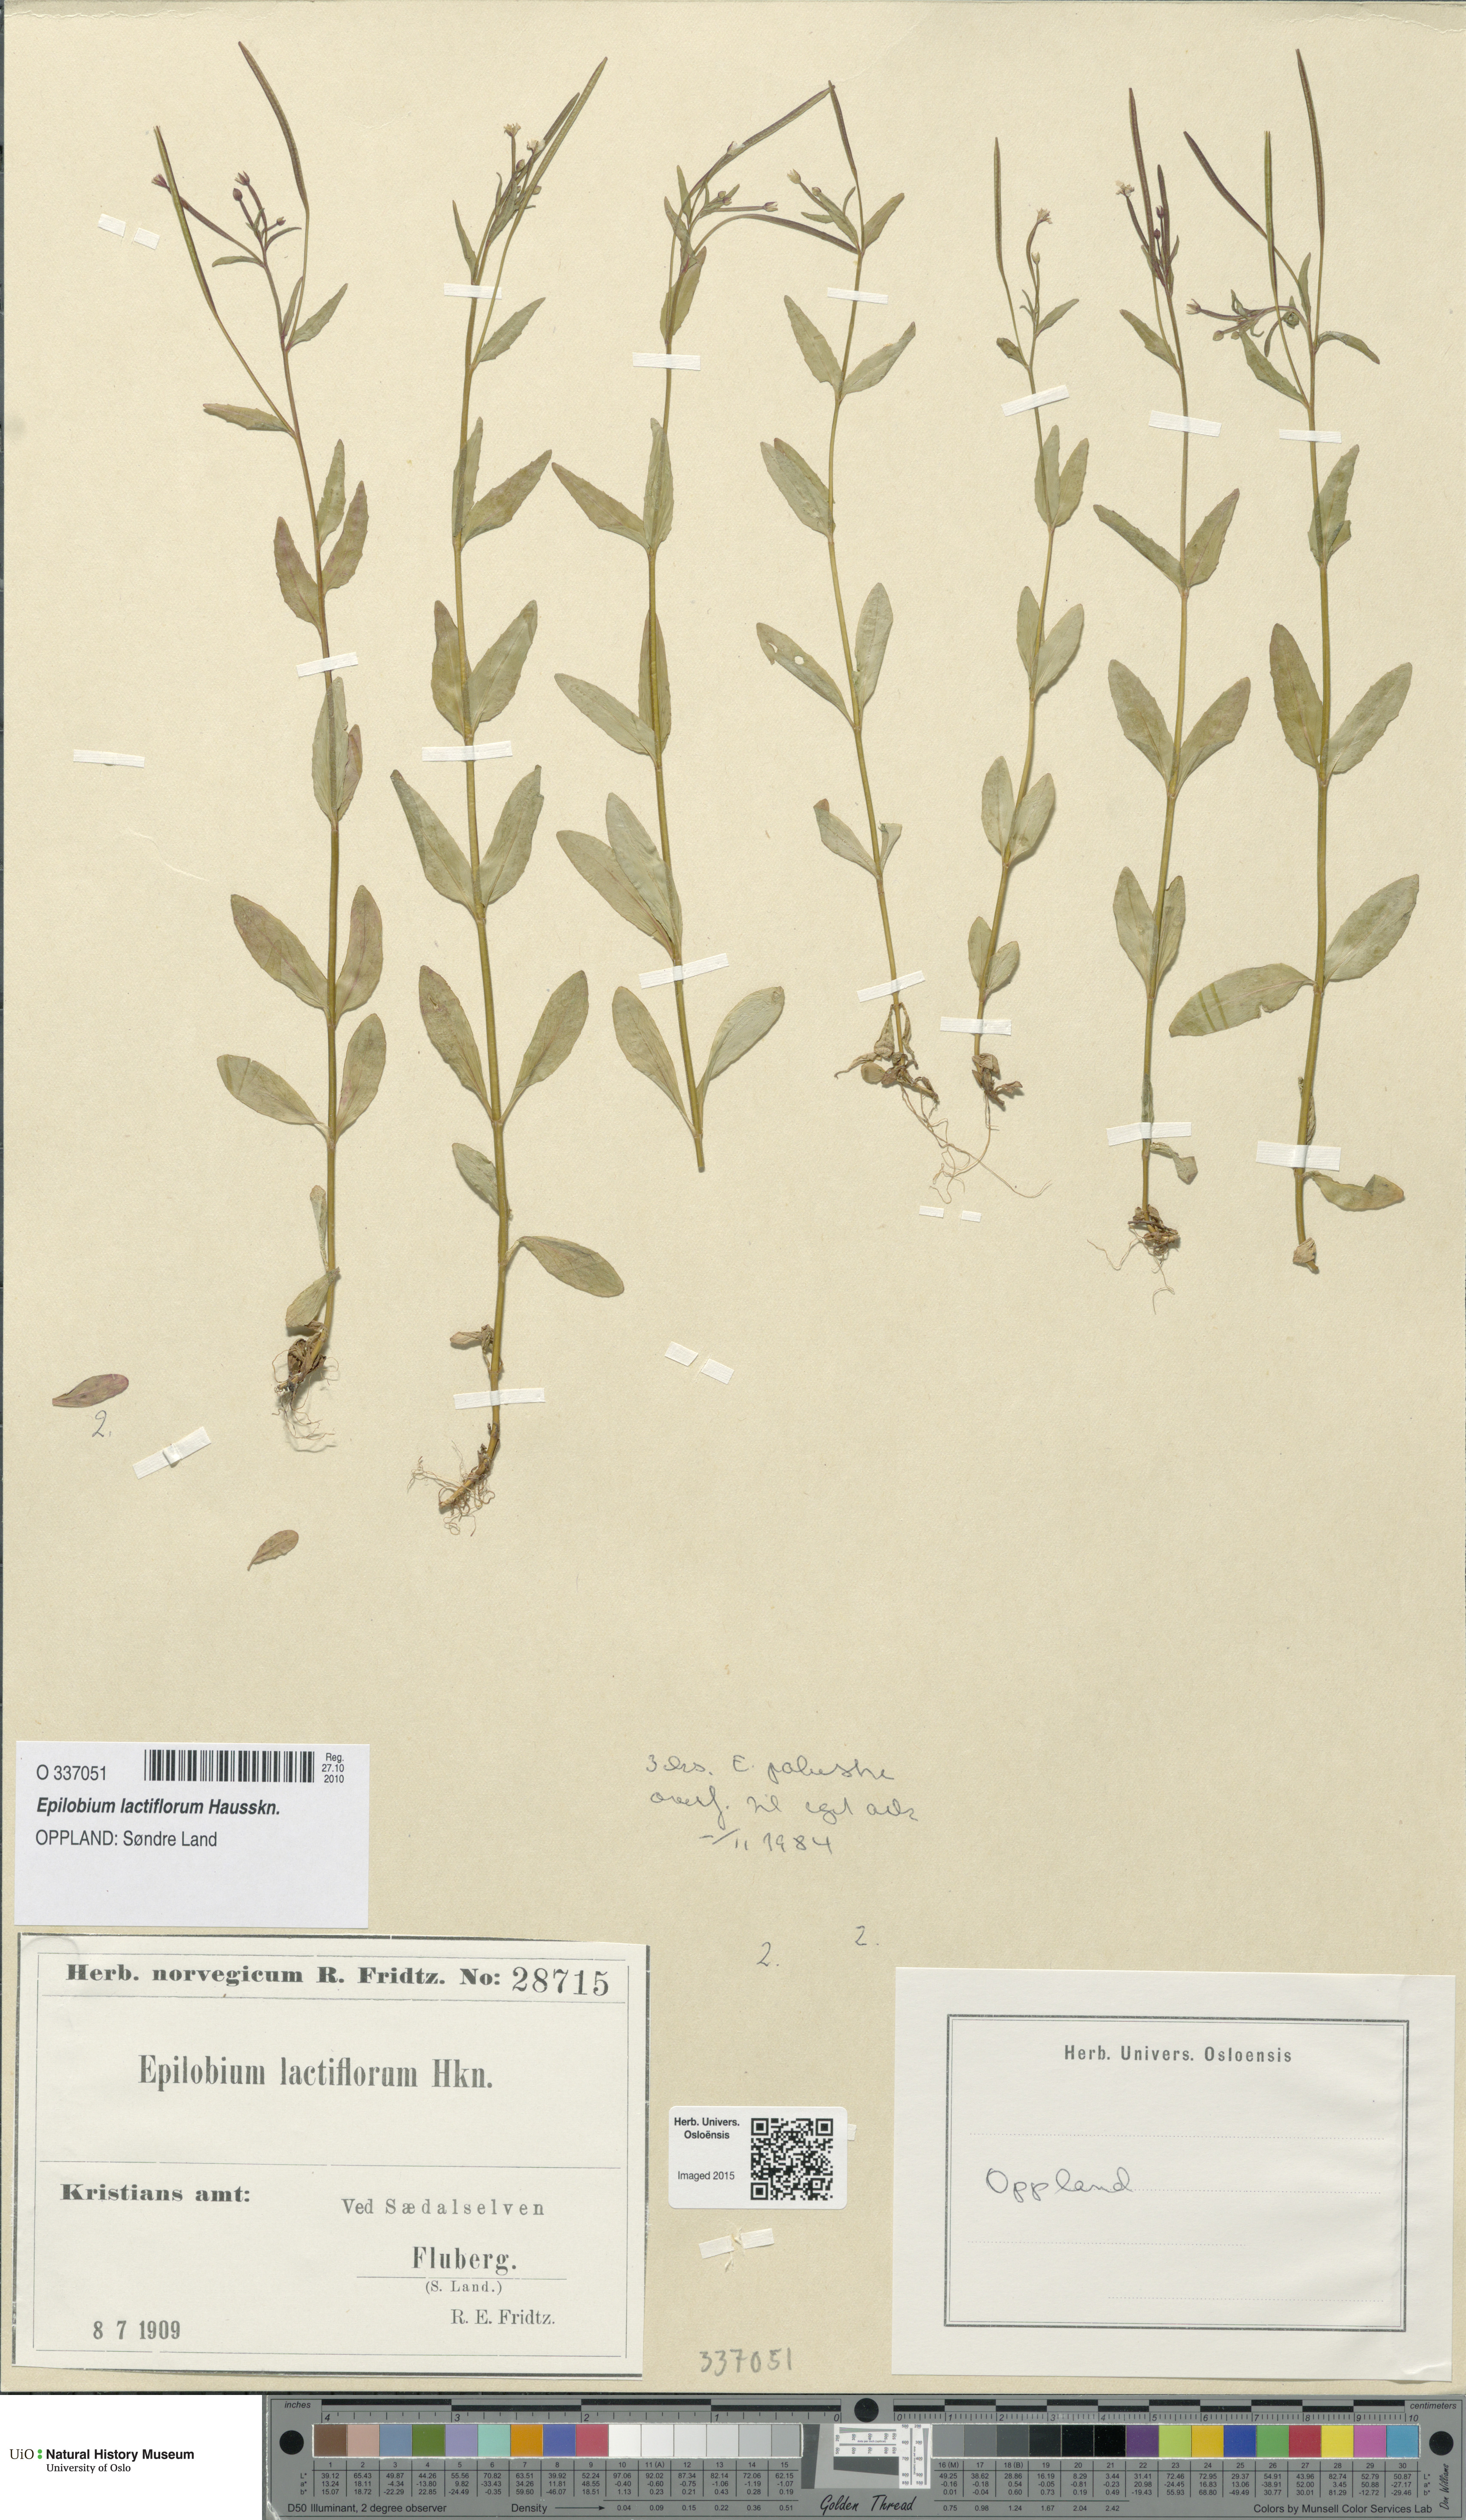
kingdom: Plantae
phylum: Tracheophyta
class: Magnoliopsida
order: Myrtales
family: Onagraceae
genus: Epilobium
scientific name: Epilobium lactiflorum
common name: Milkflower willowherb
